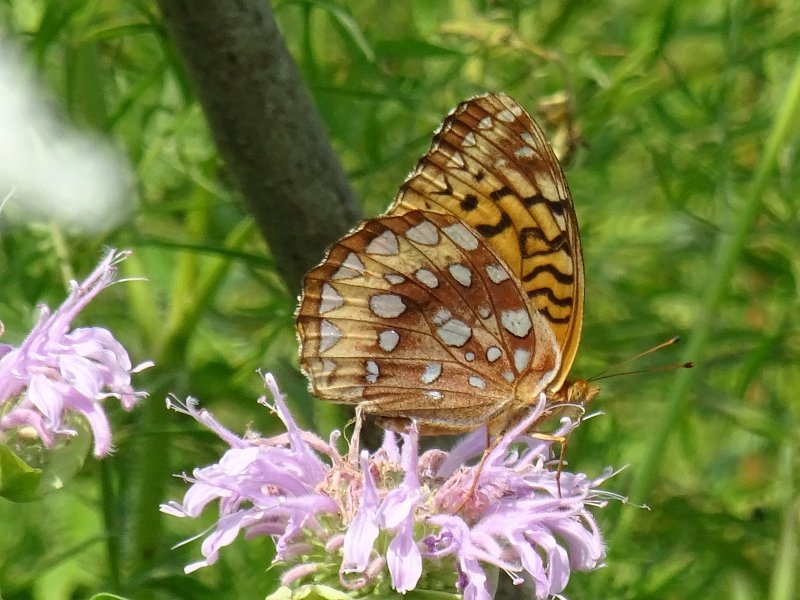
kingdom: Animalia
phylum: Arthropoda
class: Insecta
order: Lepidoptera
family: Nymphalidae
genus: Speyeria
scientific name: Speyeria cybele
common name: Great Spangled Fritillary
